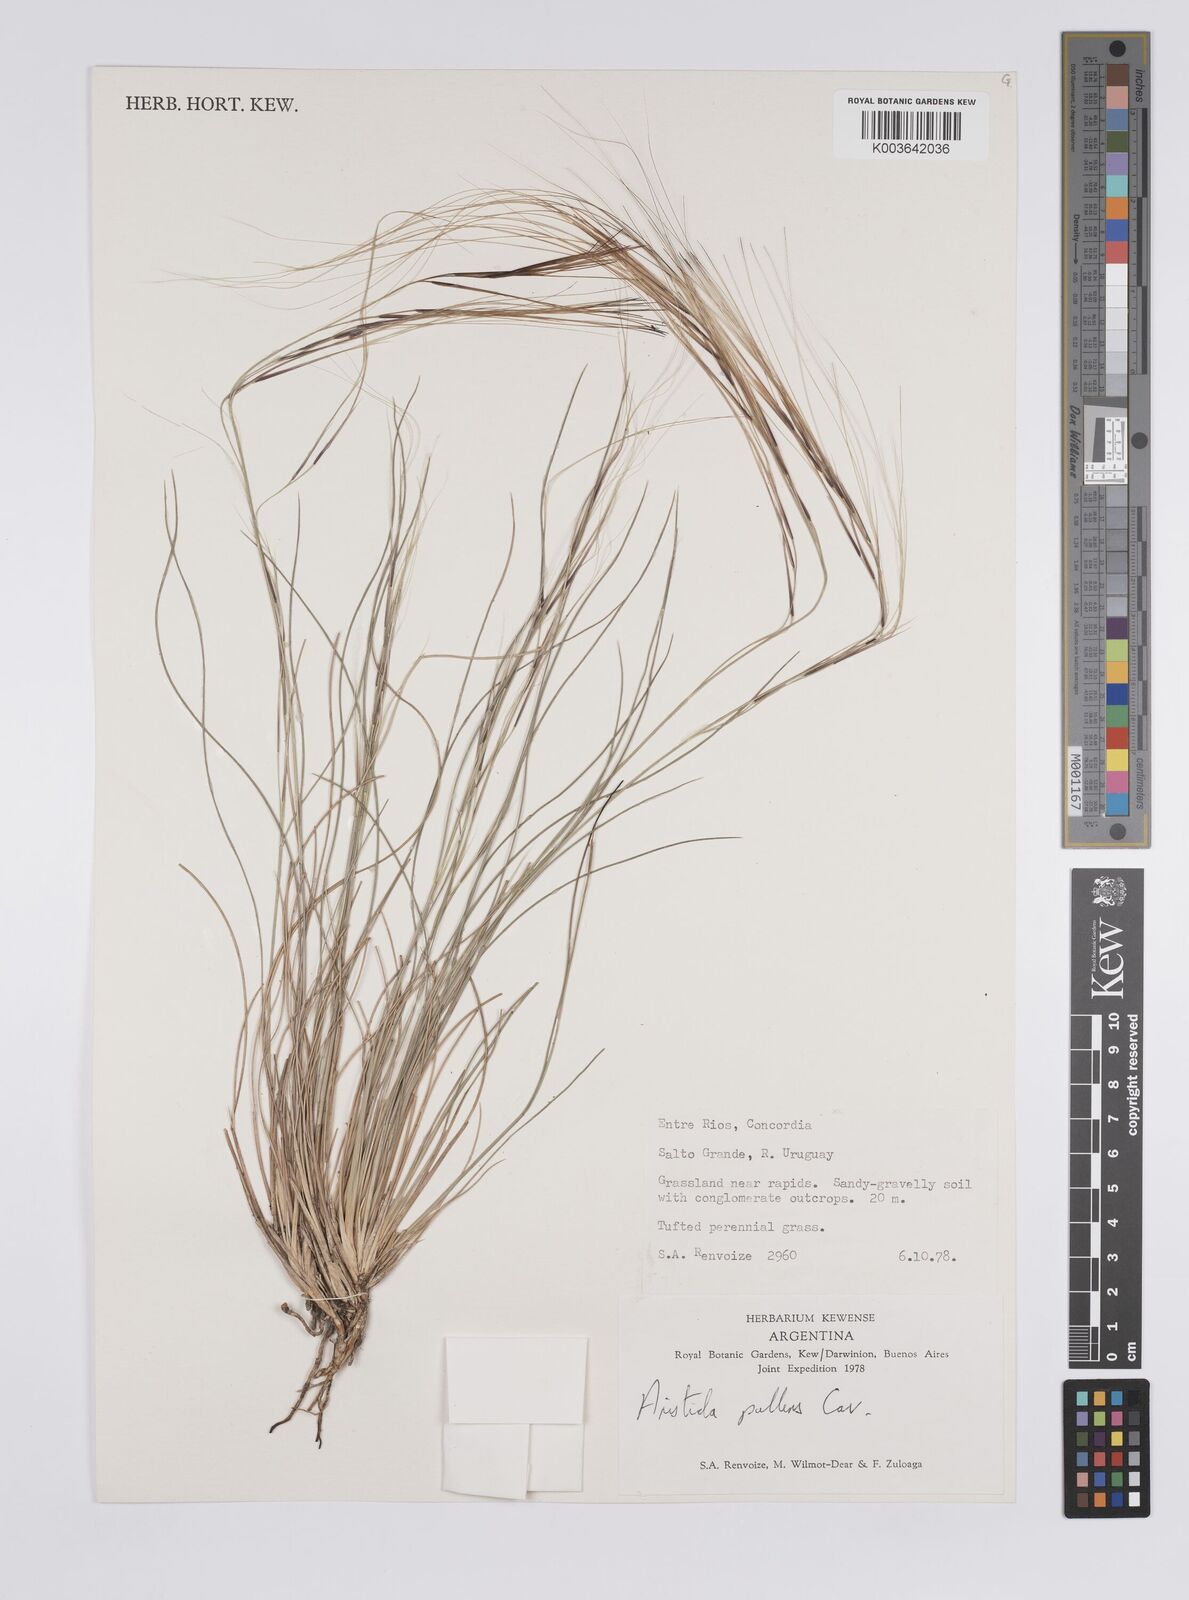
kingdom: Plantae
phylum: Tracheophyta
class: Liliopsida
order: Poales
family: Poaceae
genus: Aristida
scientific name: Aristida pallens
